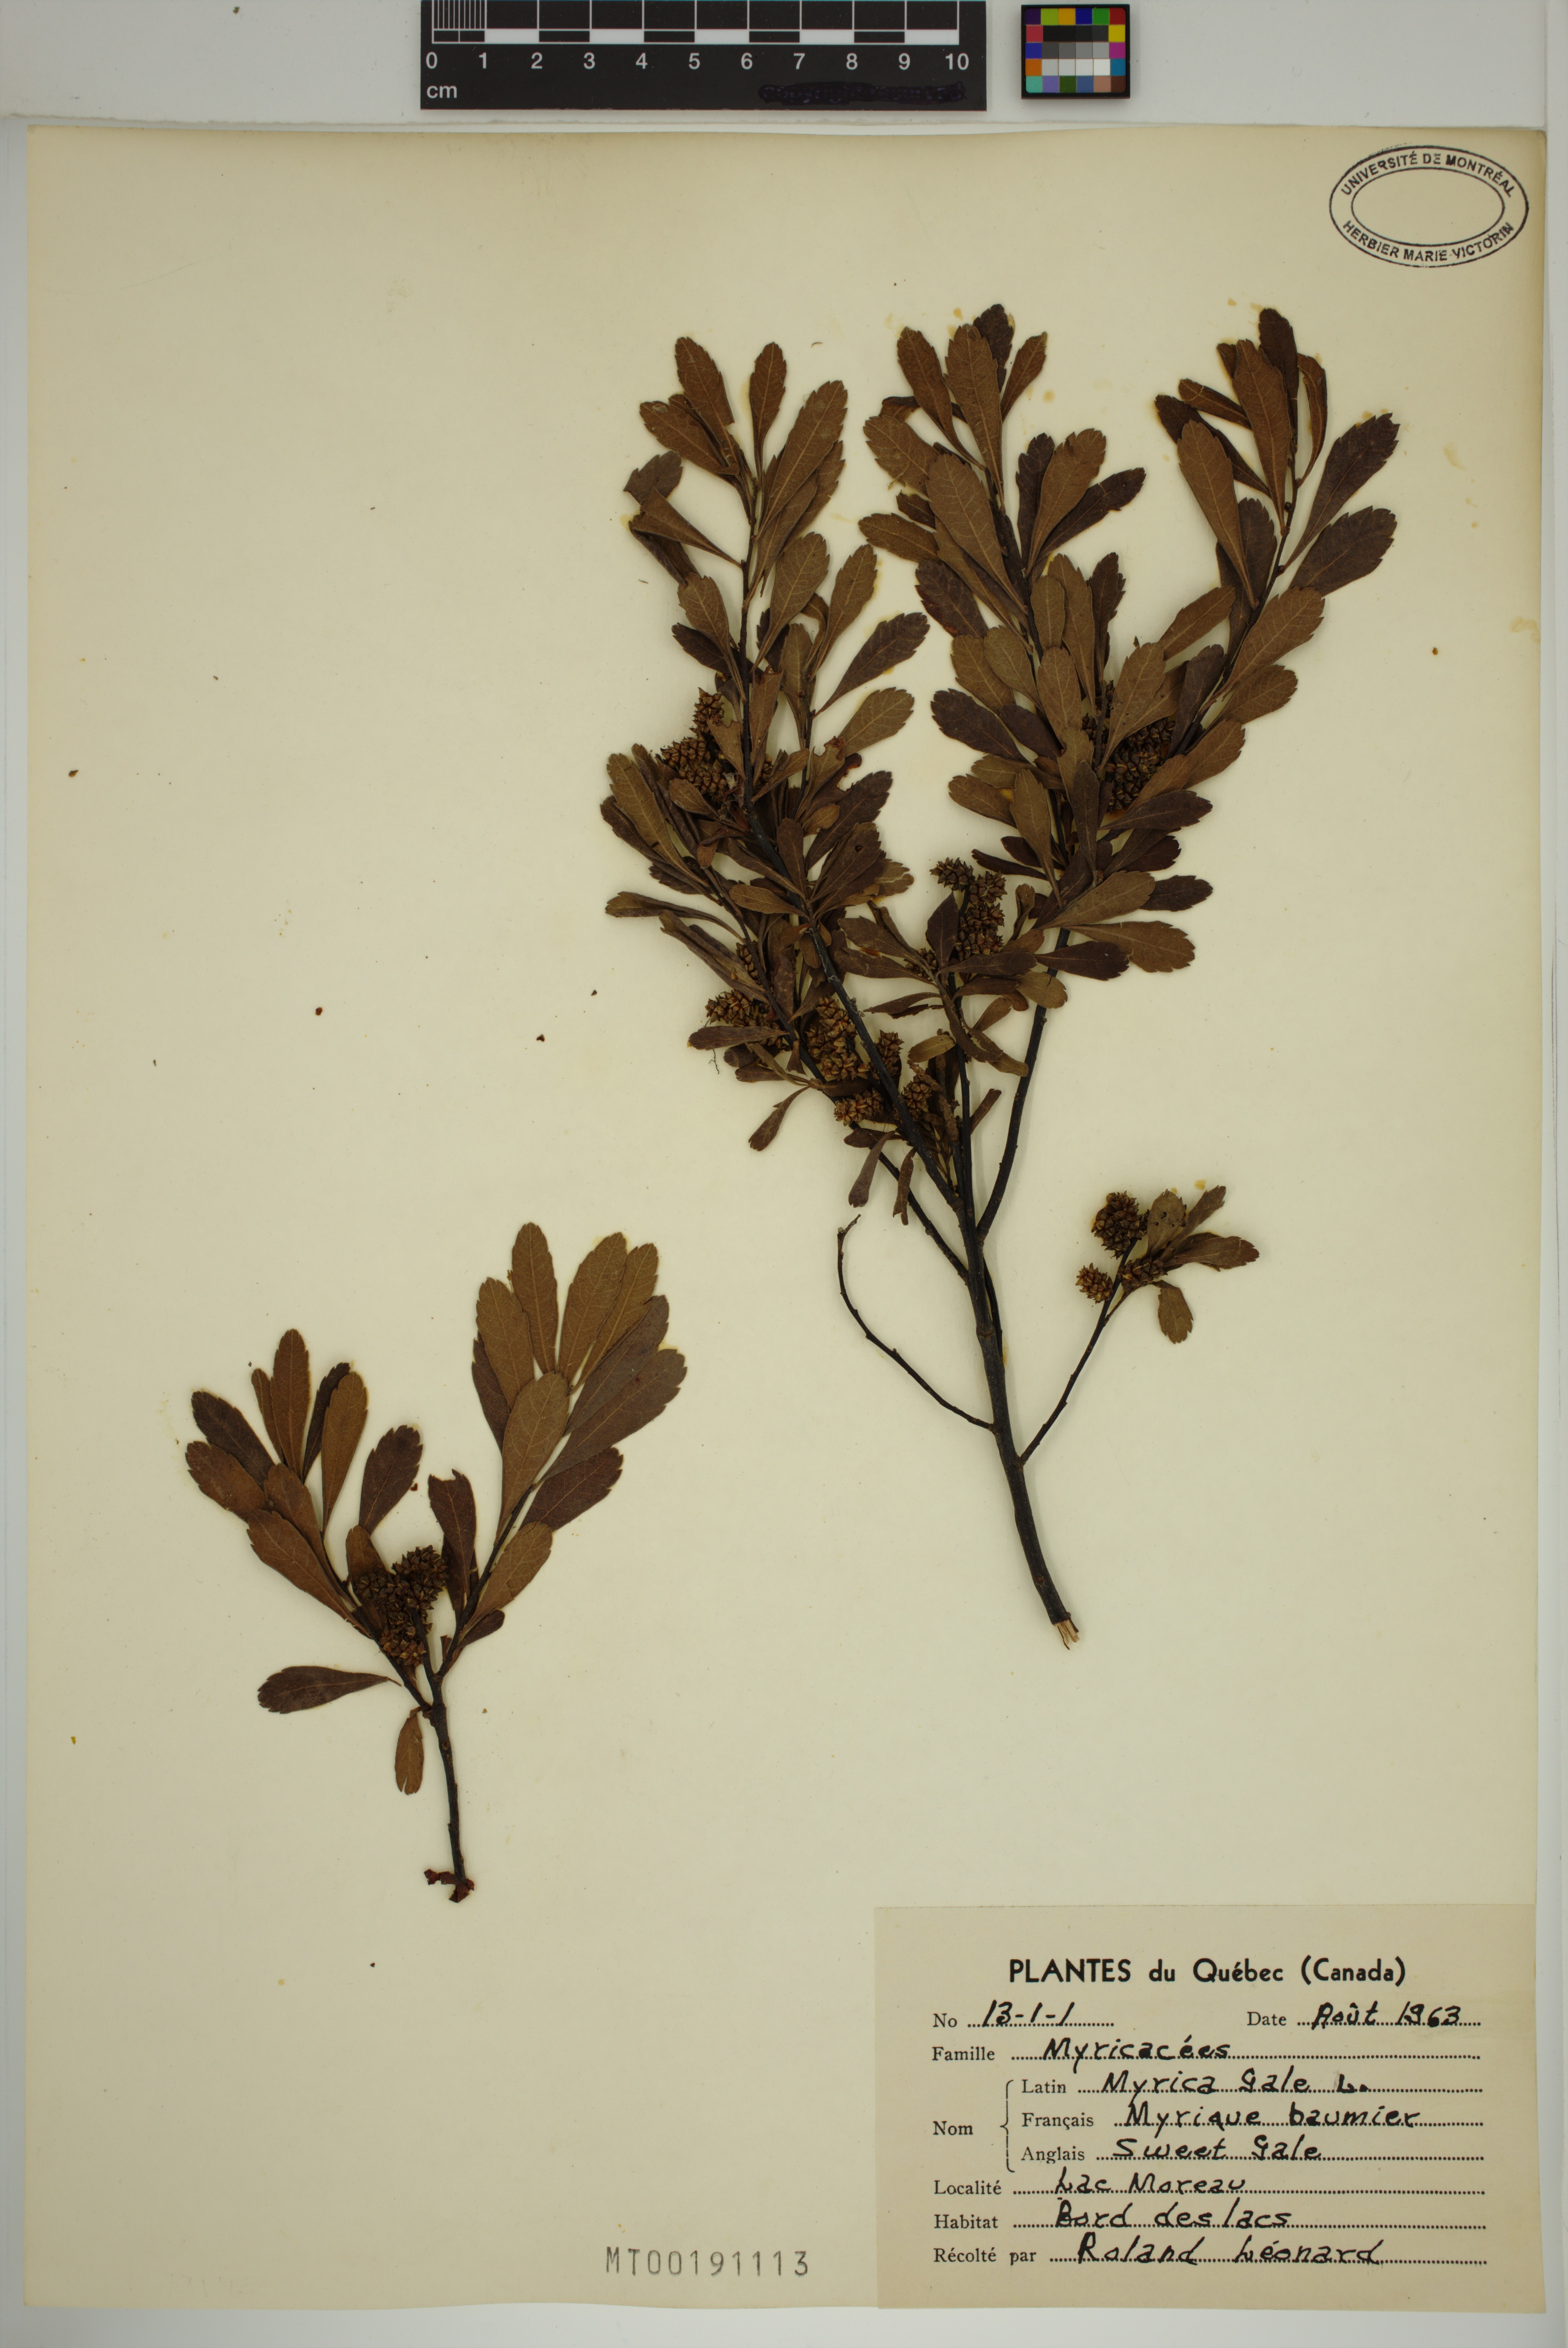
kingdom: Plantae
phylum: Tracheophyta
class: Magnoliopsida
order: Fagales
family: Myricaceae
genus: Myrica
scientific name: Myrica gale
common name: Sweet gale
